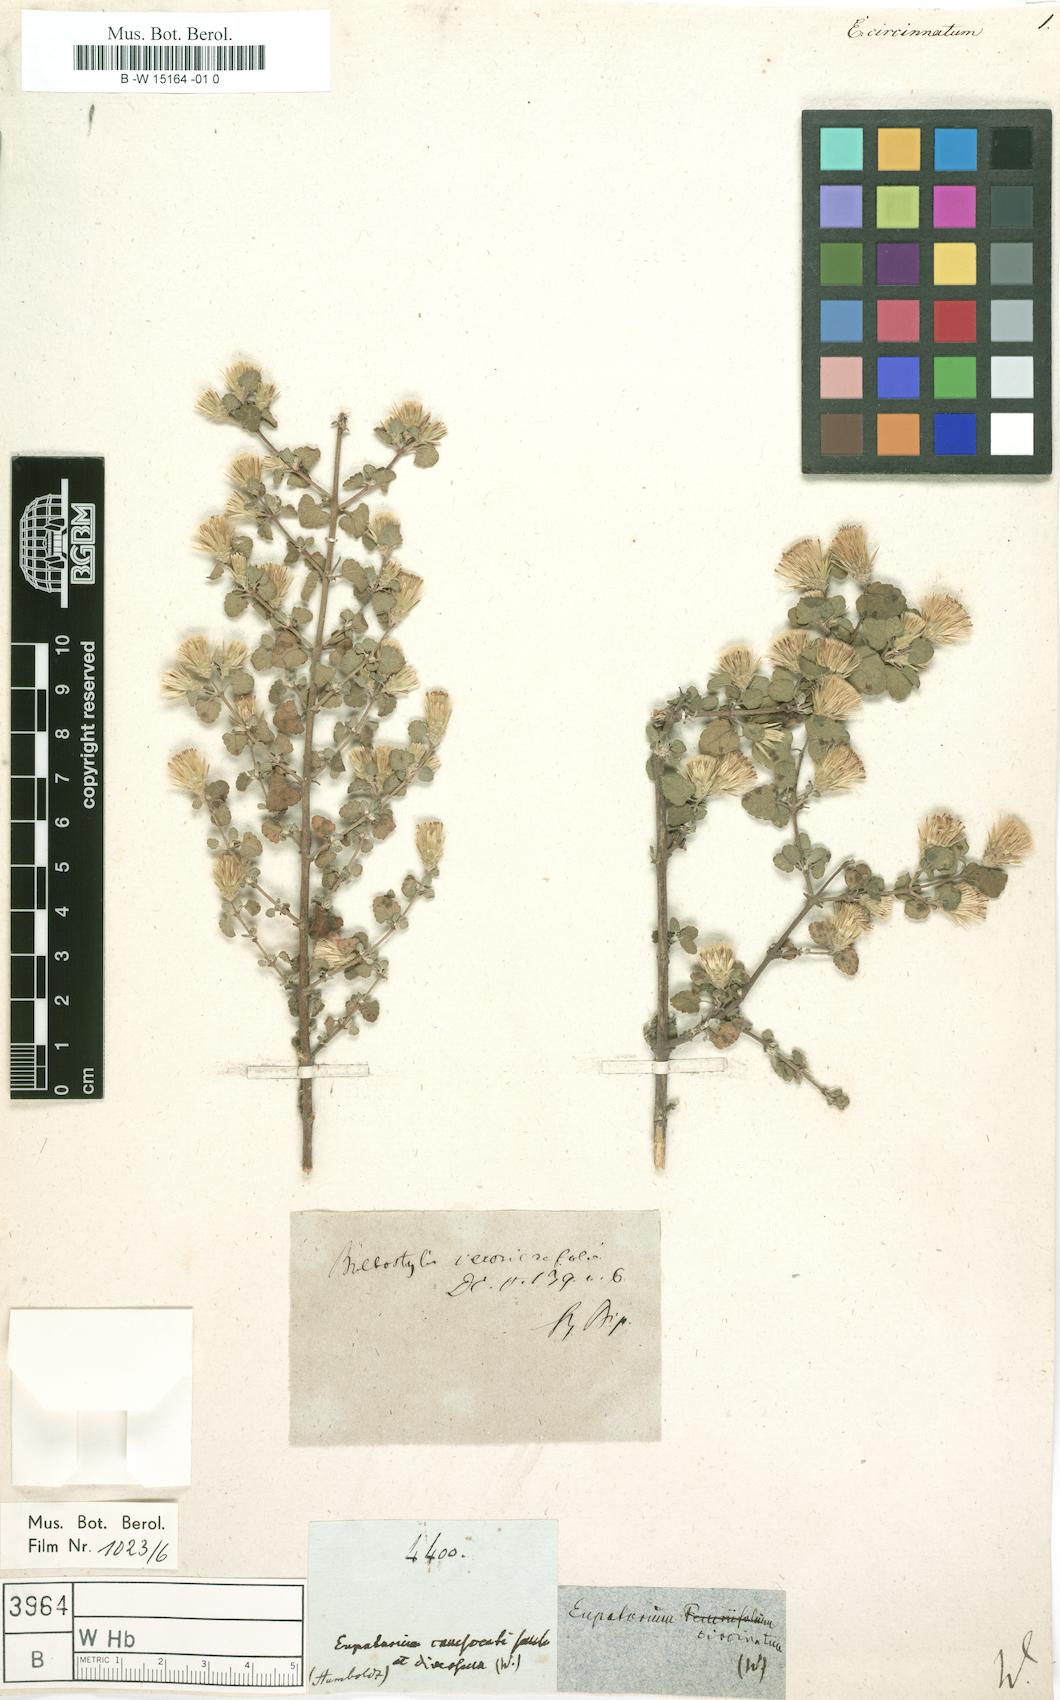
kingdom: Plantae
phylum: Tracheophyta
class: Magnoliopsida
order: Asterales
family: Asteraceae
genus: Eupatorium
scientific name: Eupatorium
